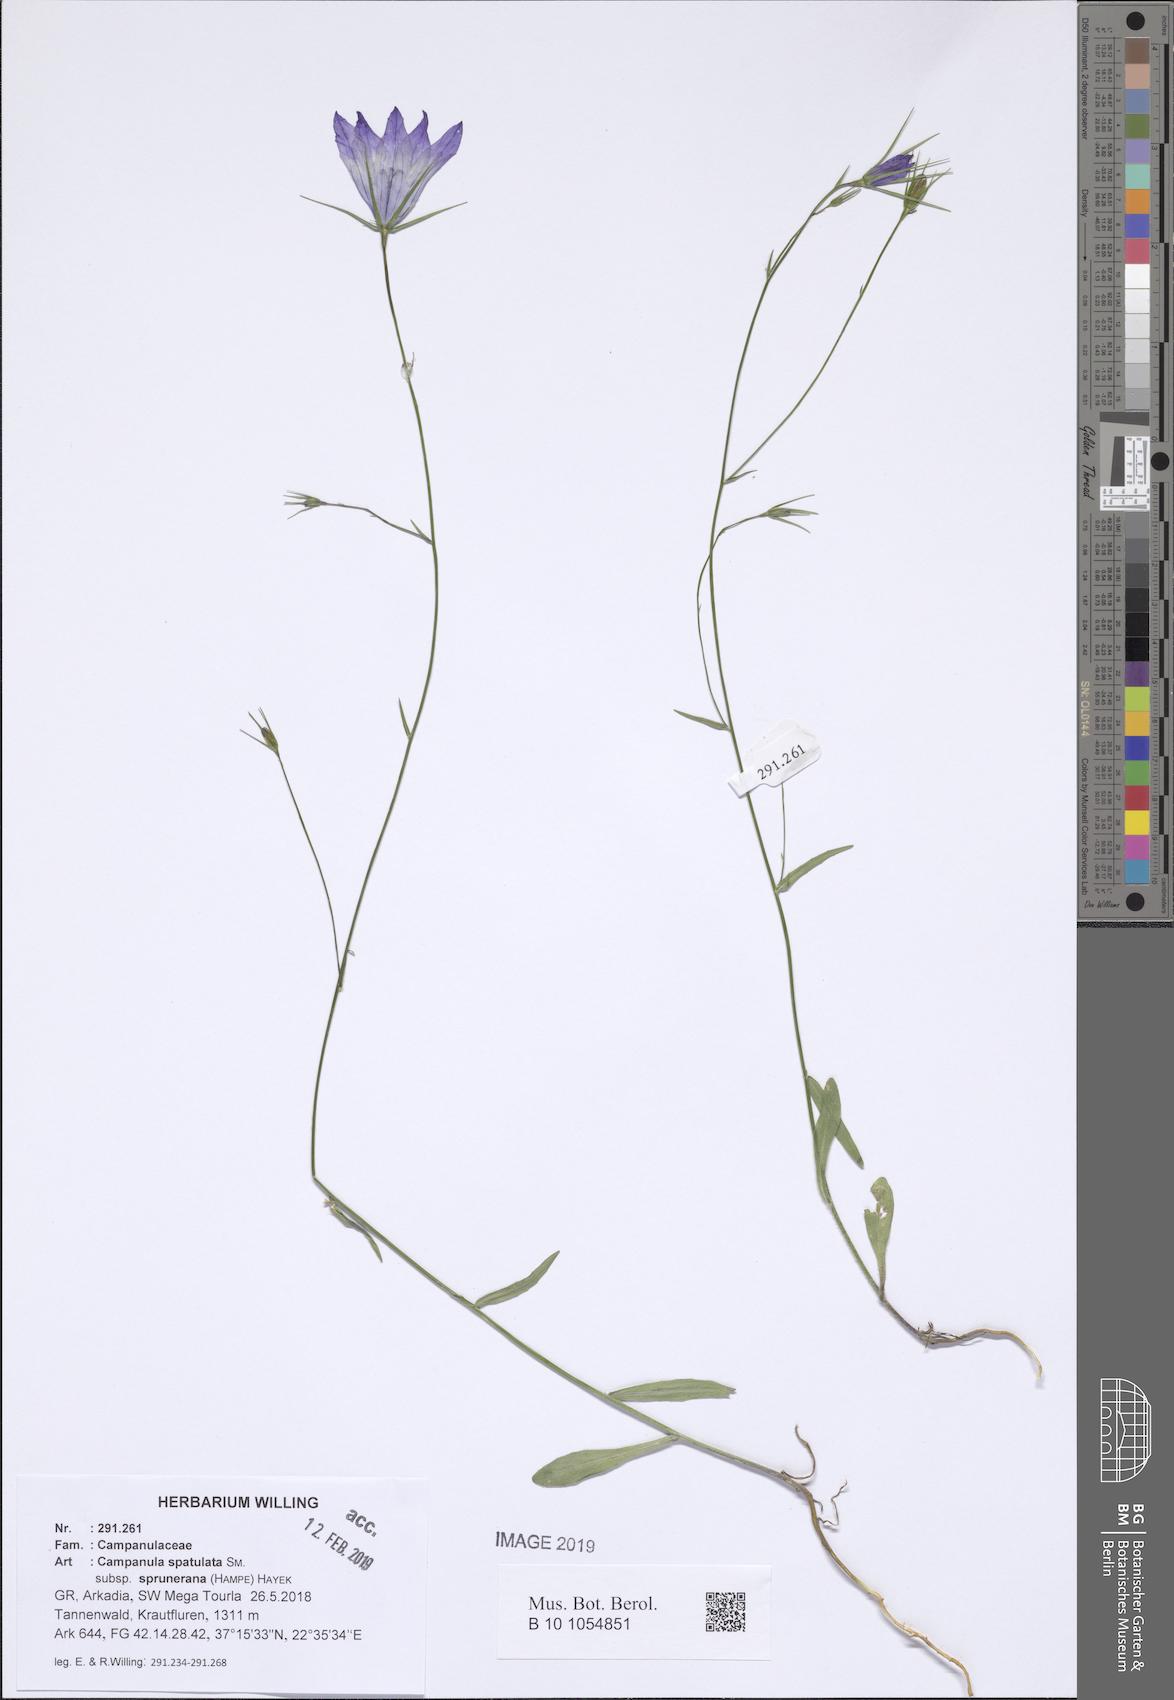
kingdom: Plantae
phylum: Tracheophyta
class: Magnoliopsida
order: Asterales
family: Campanulaceae
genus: Campanula
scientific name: Campanula spatulata
